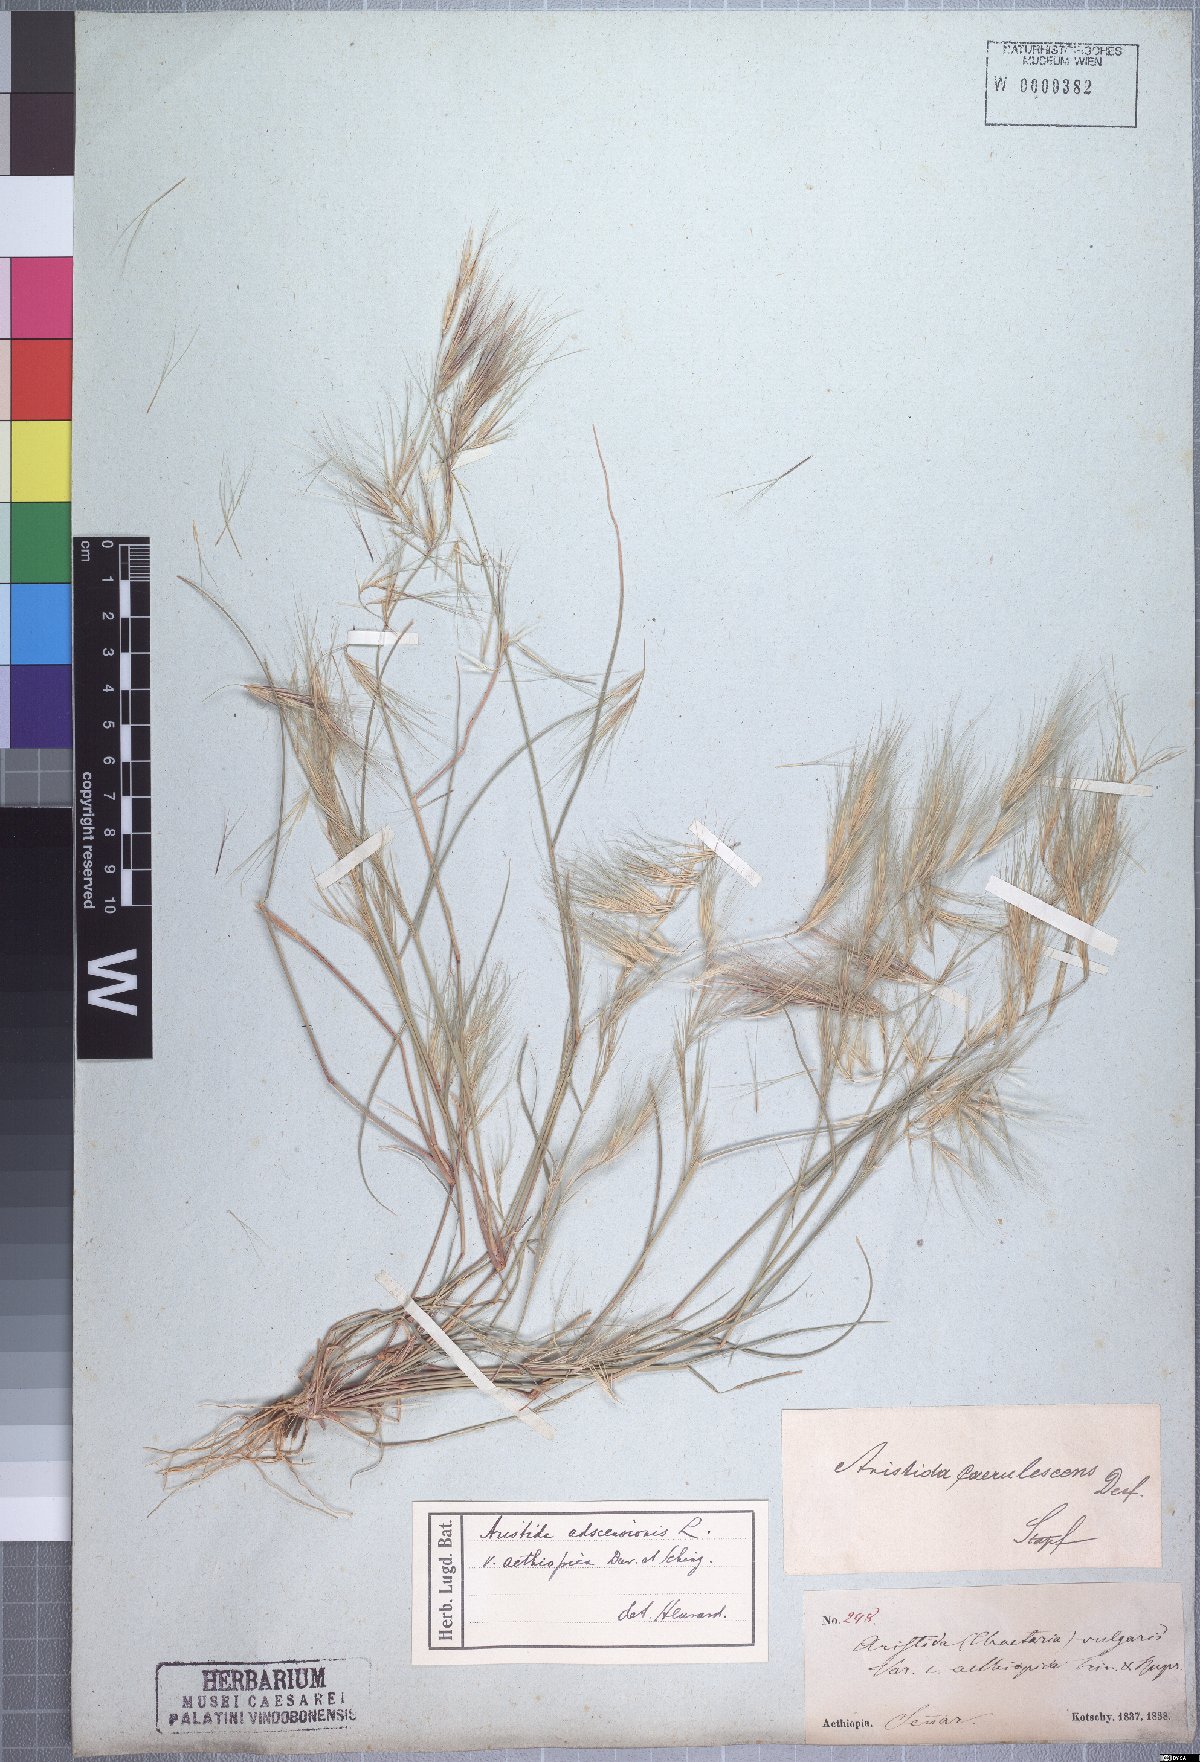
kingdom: Plantae
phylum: Tracheophyta
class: Liliopsida
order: Poales
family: Poaceae
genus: Aristida
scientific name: Aristida adscensionis
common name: Sixweeks threeawn
